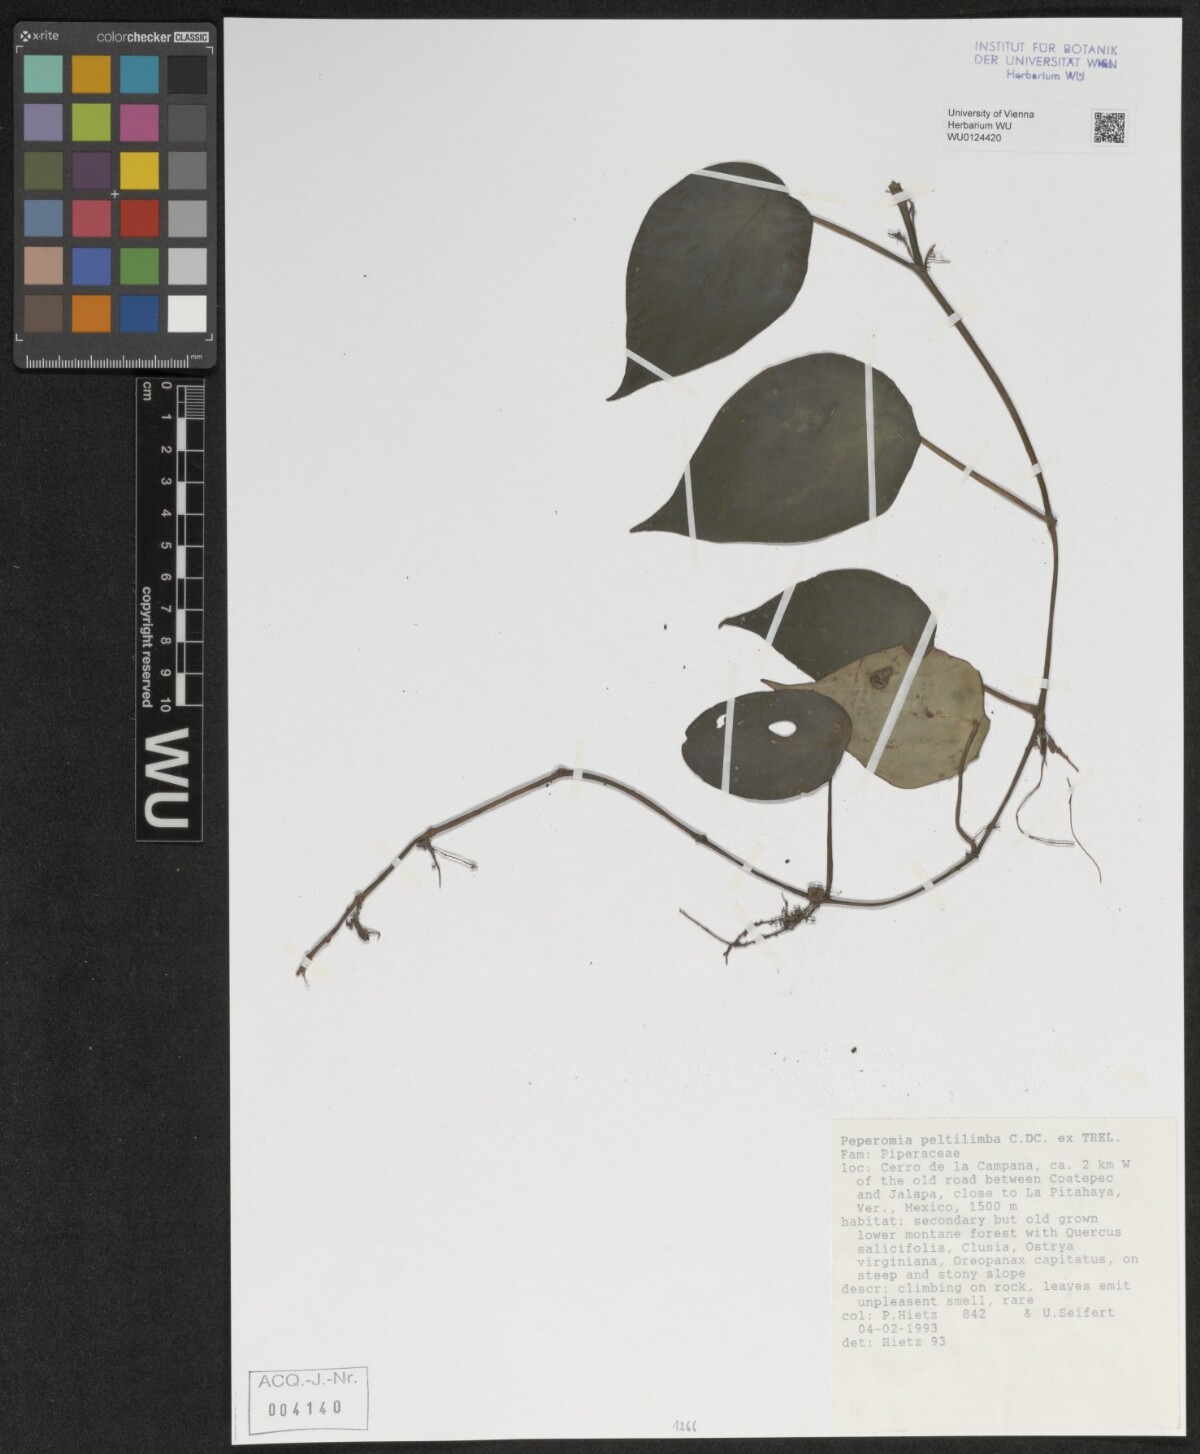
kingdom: Plantae
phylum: Tracheophyta
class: Magnoliopsida
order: Piperales
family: Piperaceae
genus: Peperomia
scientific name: Peperomia peltilimba
